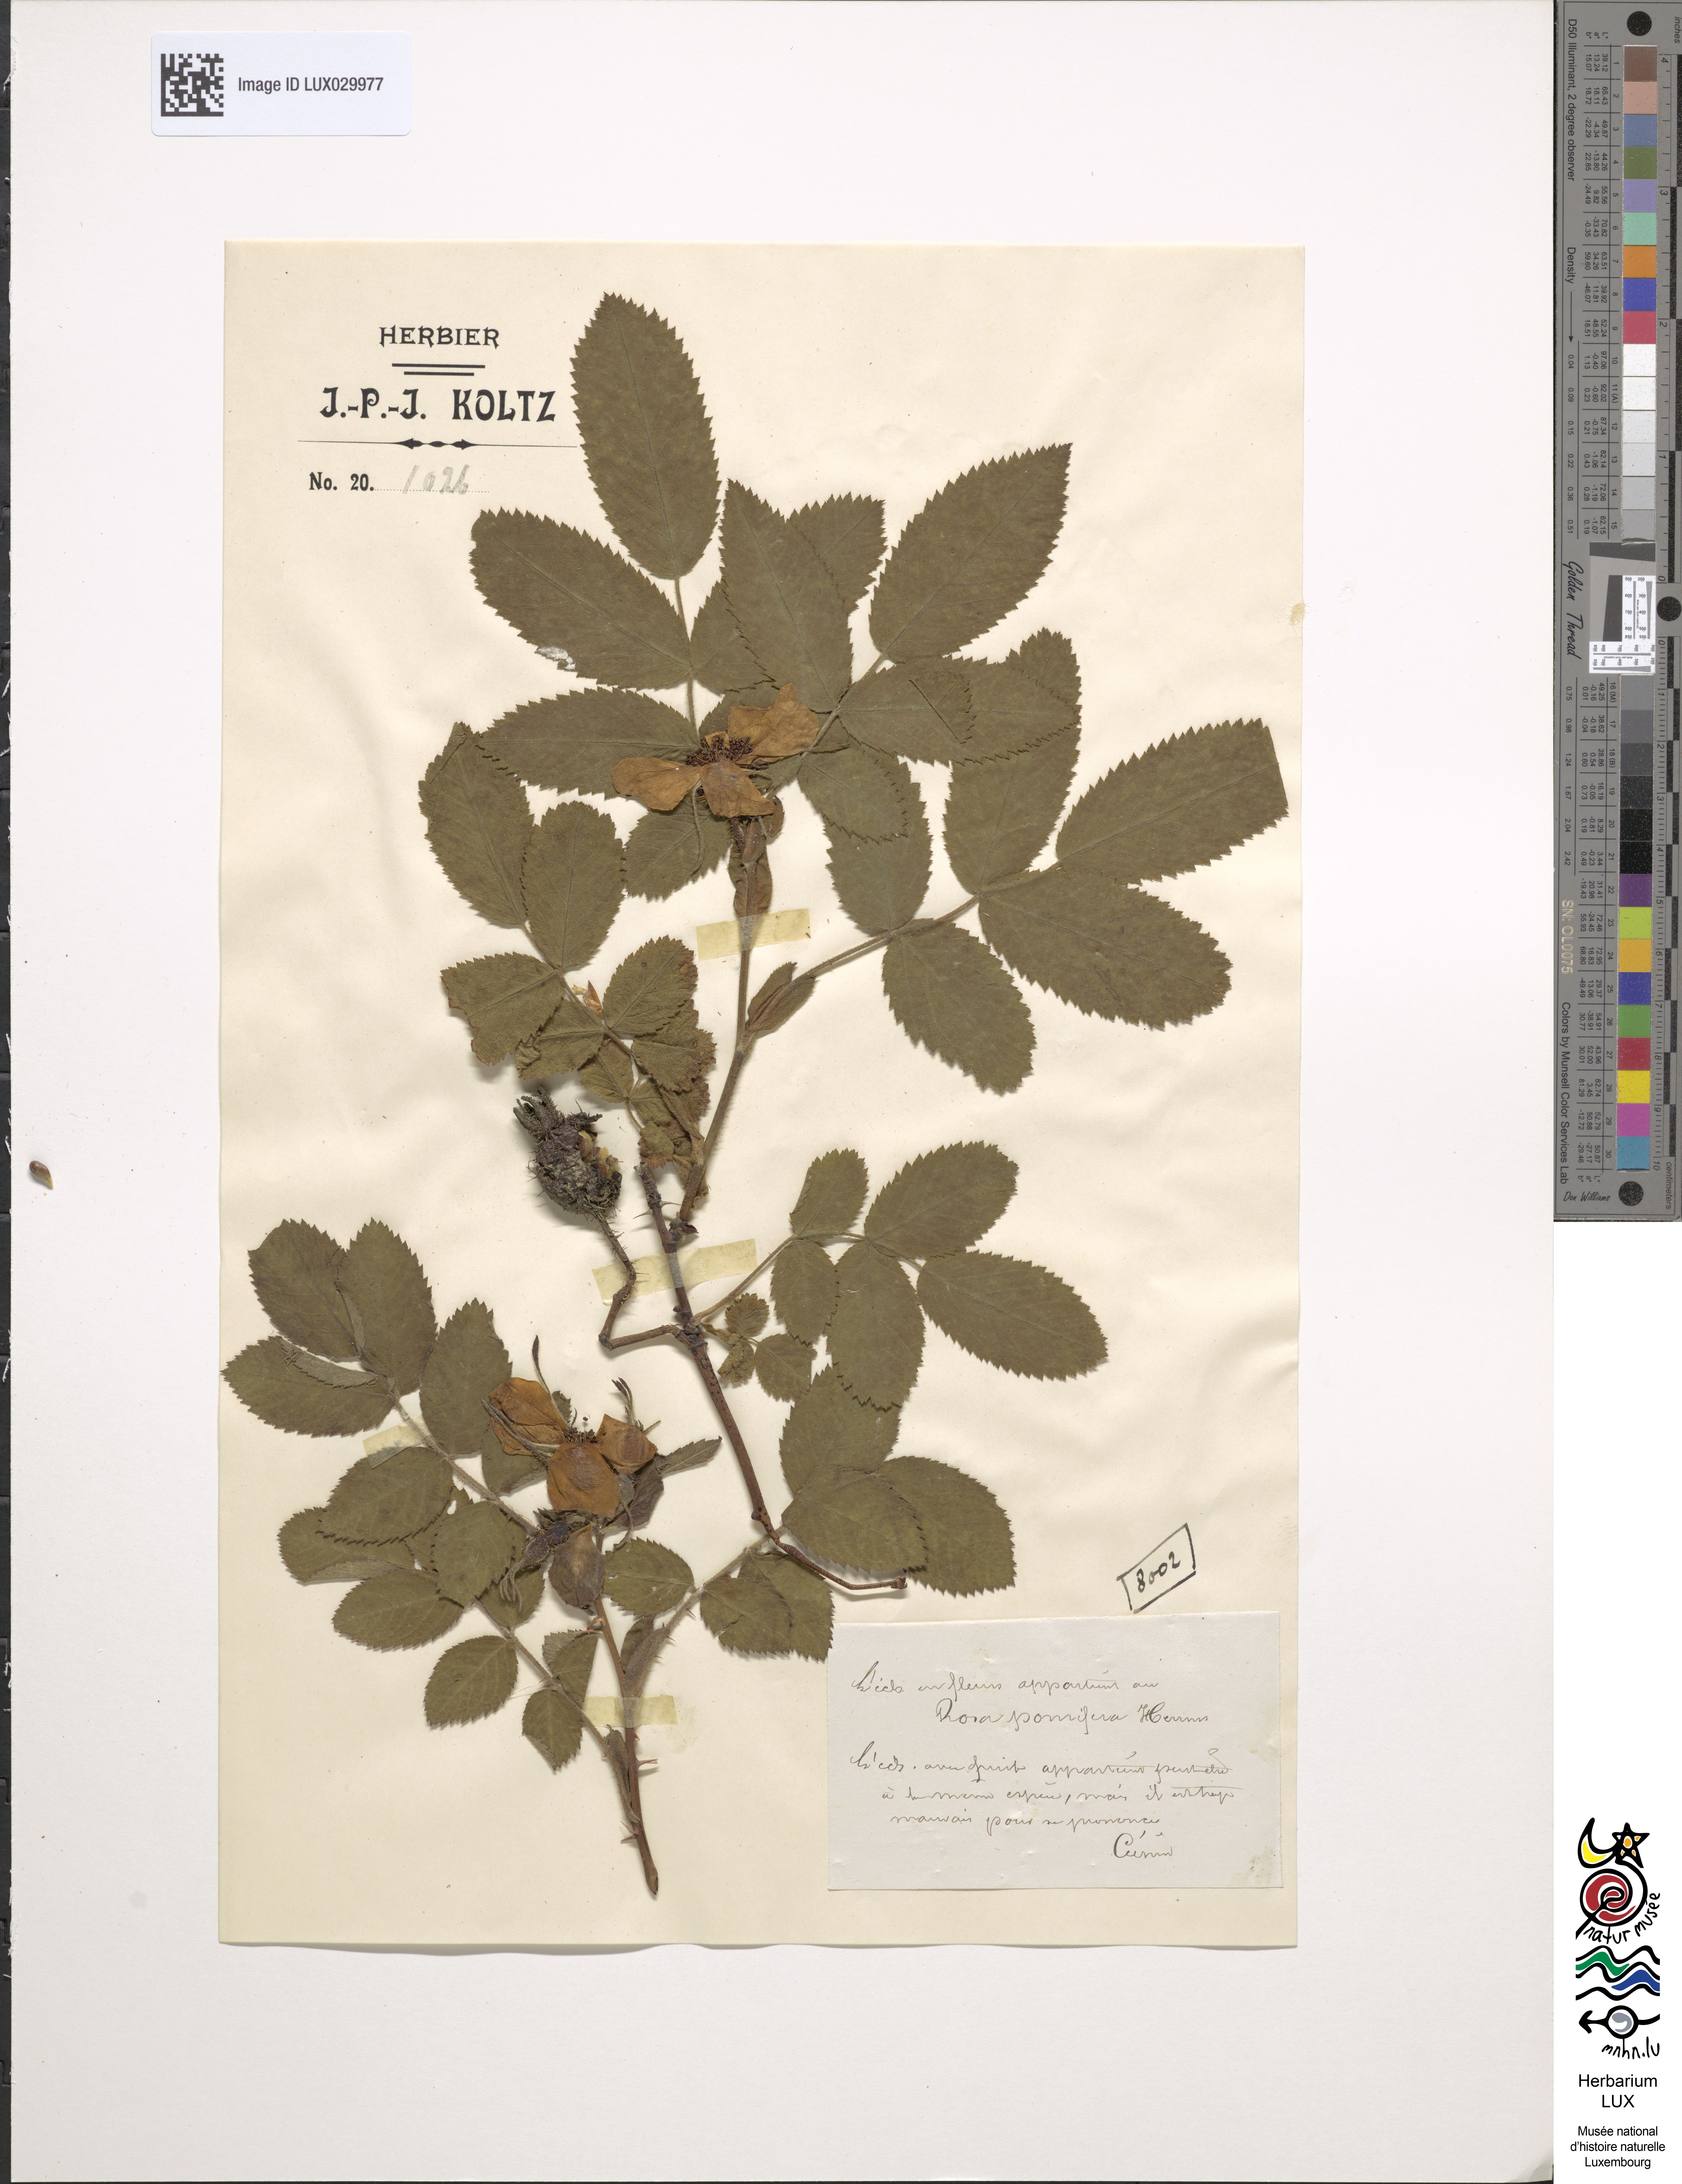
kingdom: Plantae
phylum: Tracheophyta
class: Magnoliopsida
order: Rosales
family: Rosaceae
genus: Rosa
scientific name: Rosa villosa
